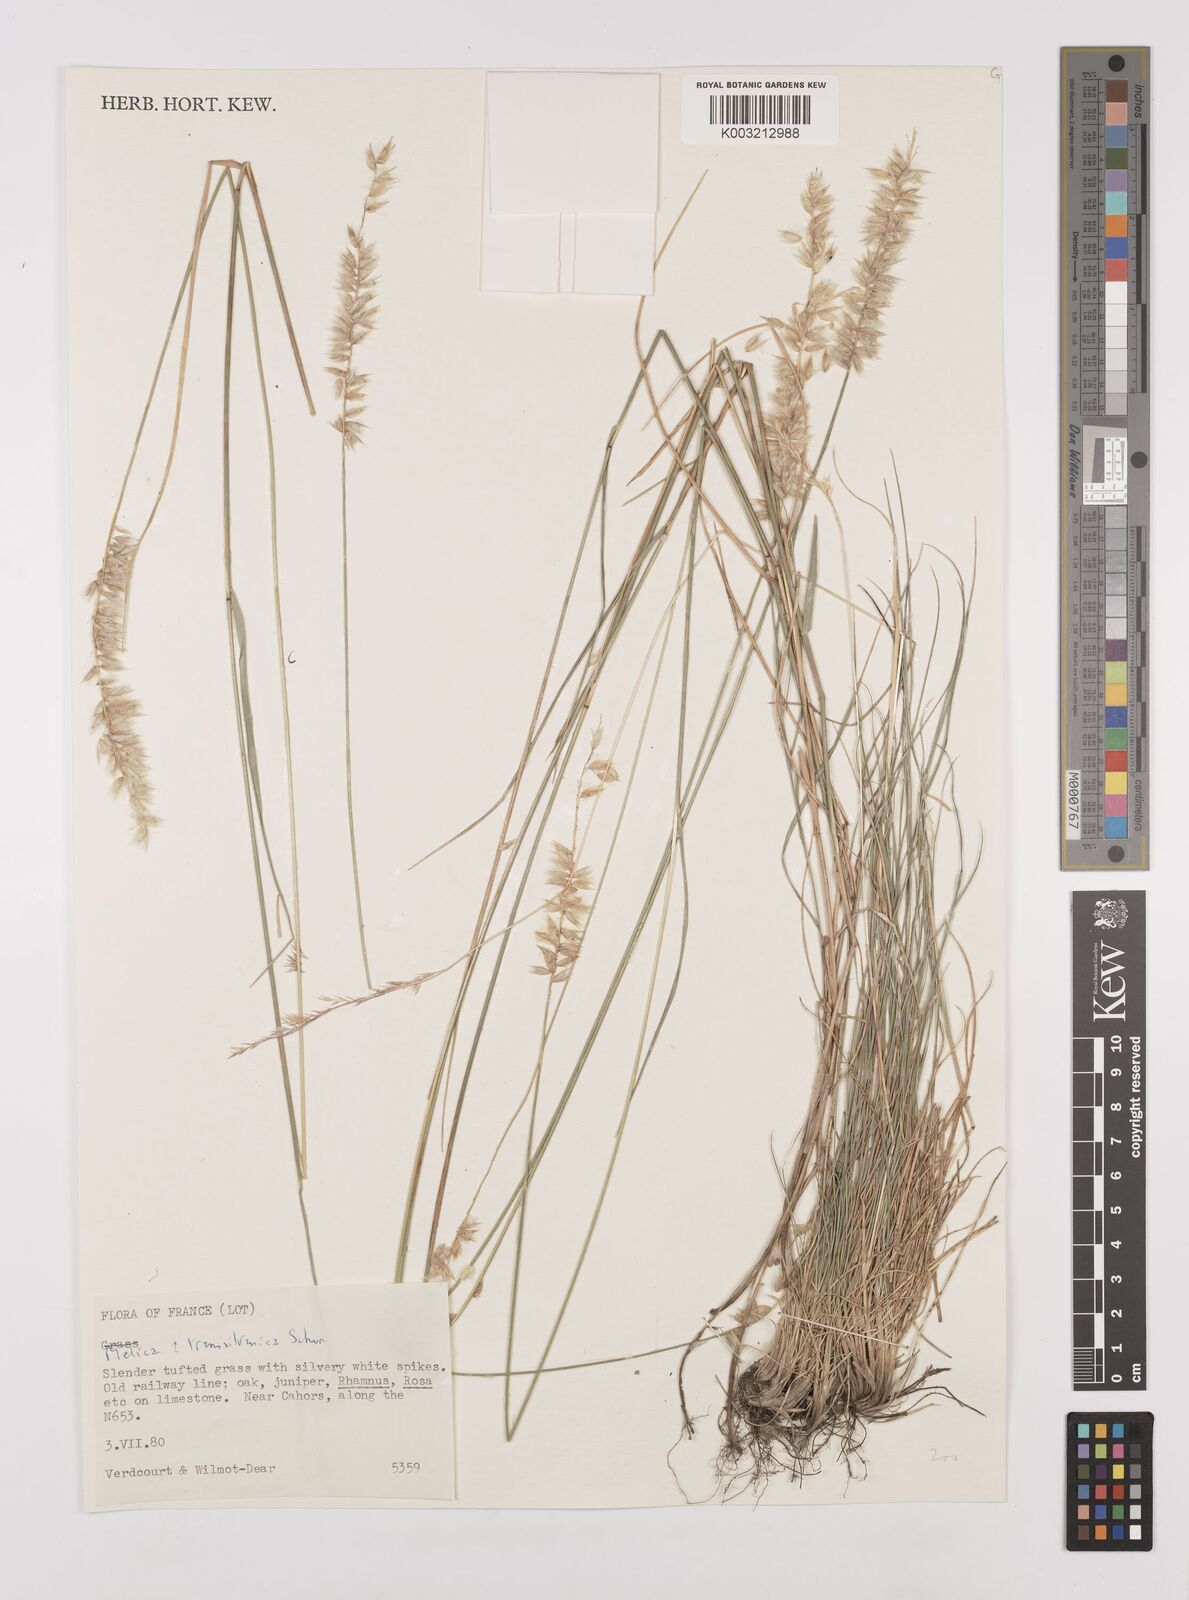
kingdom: Plantae
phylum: Tracheophyta
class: Liliopsida
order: Poales
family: Poaceae
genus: Melica
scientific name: Melica transsilvanica
